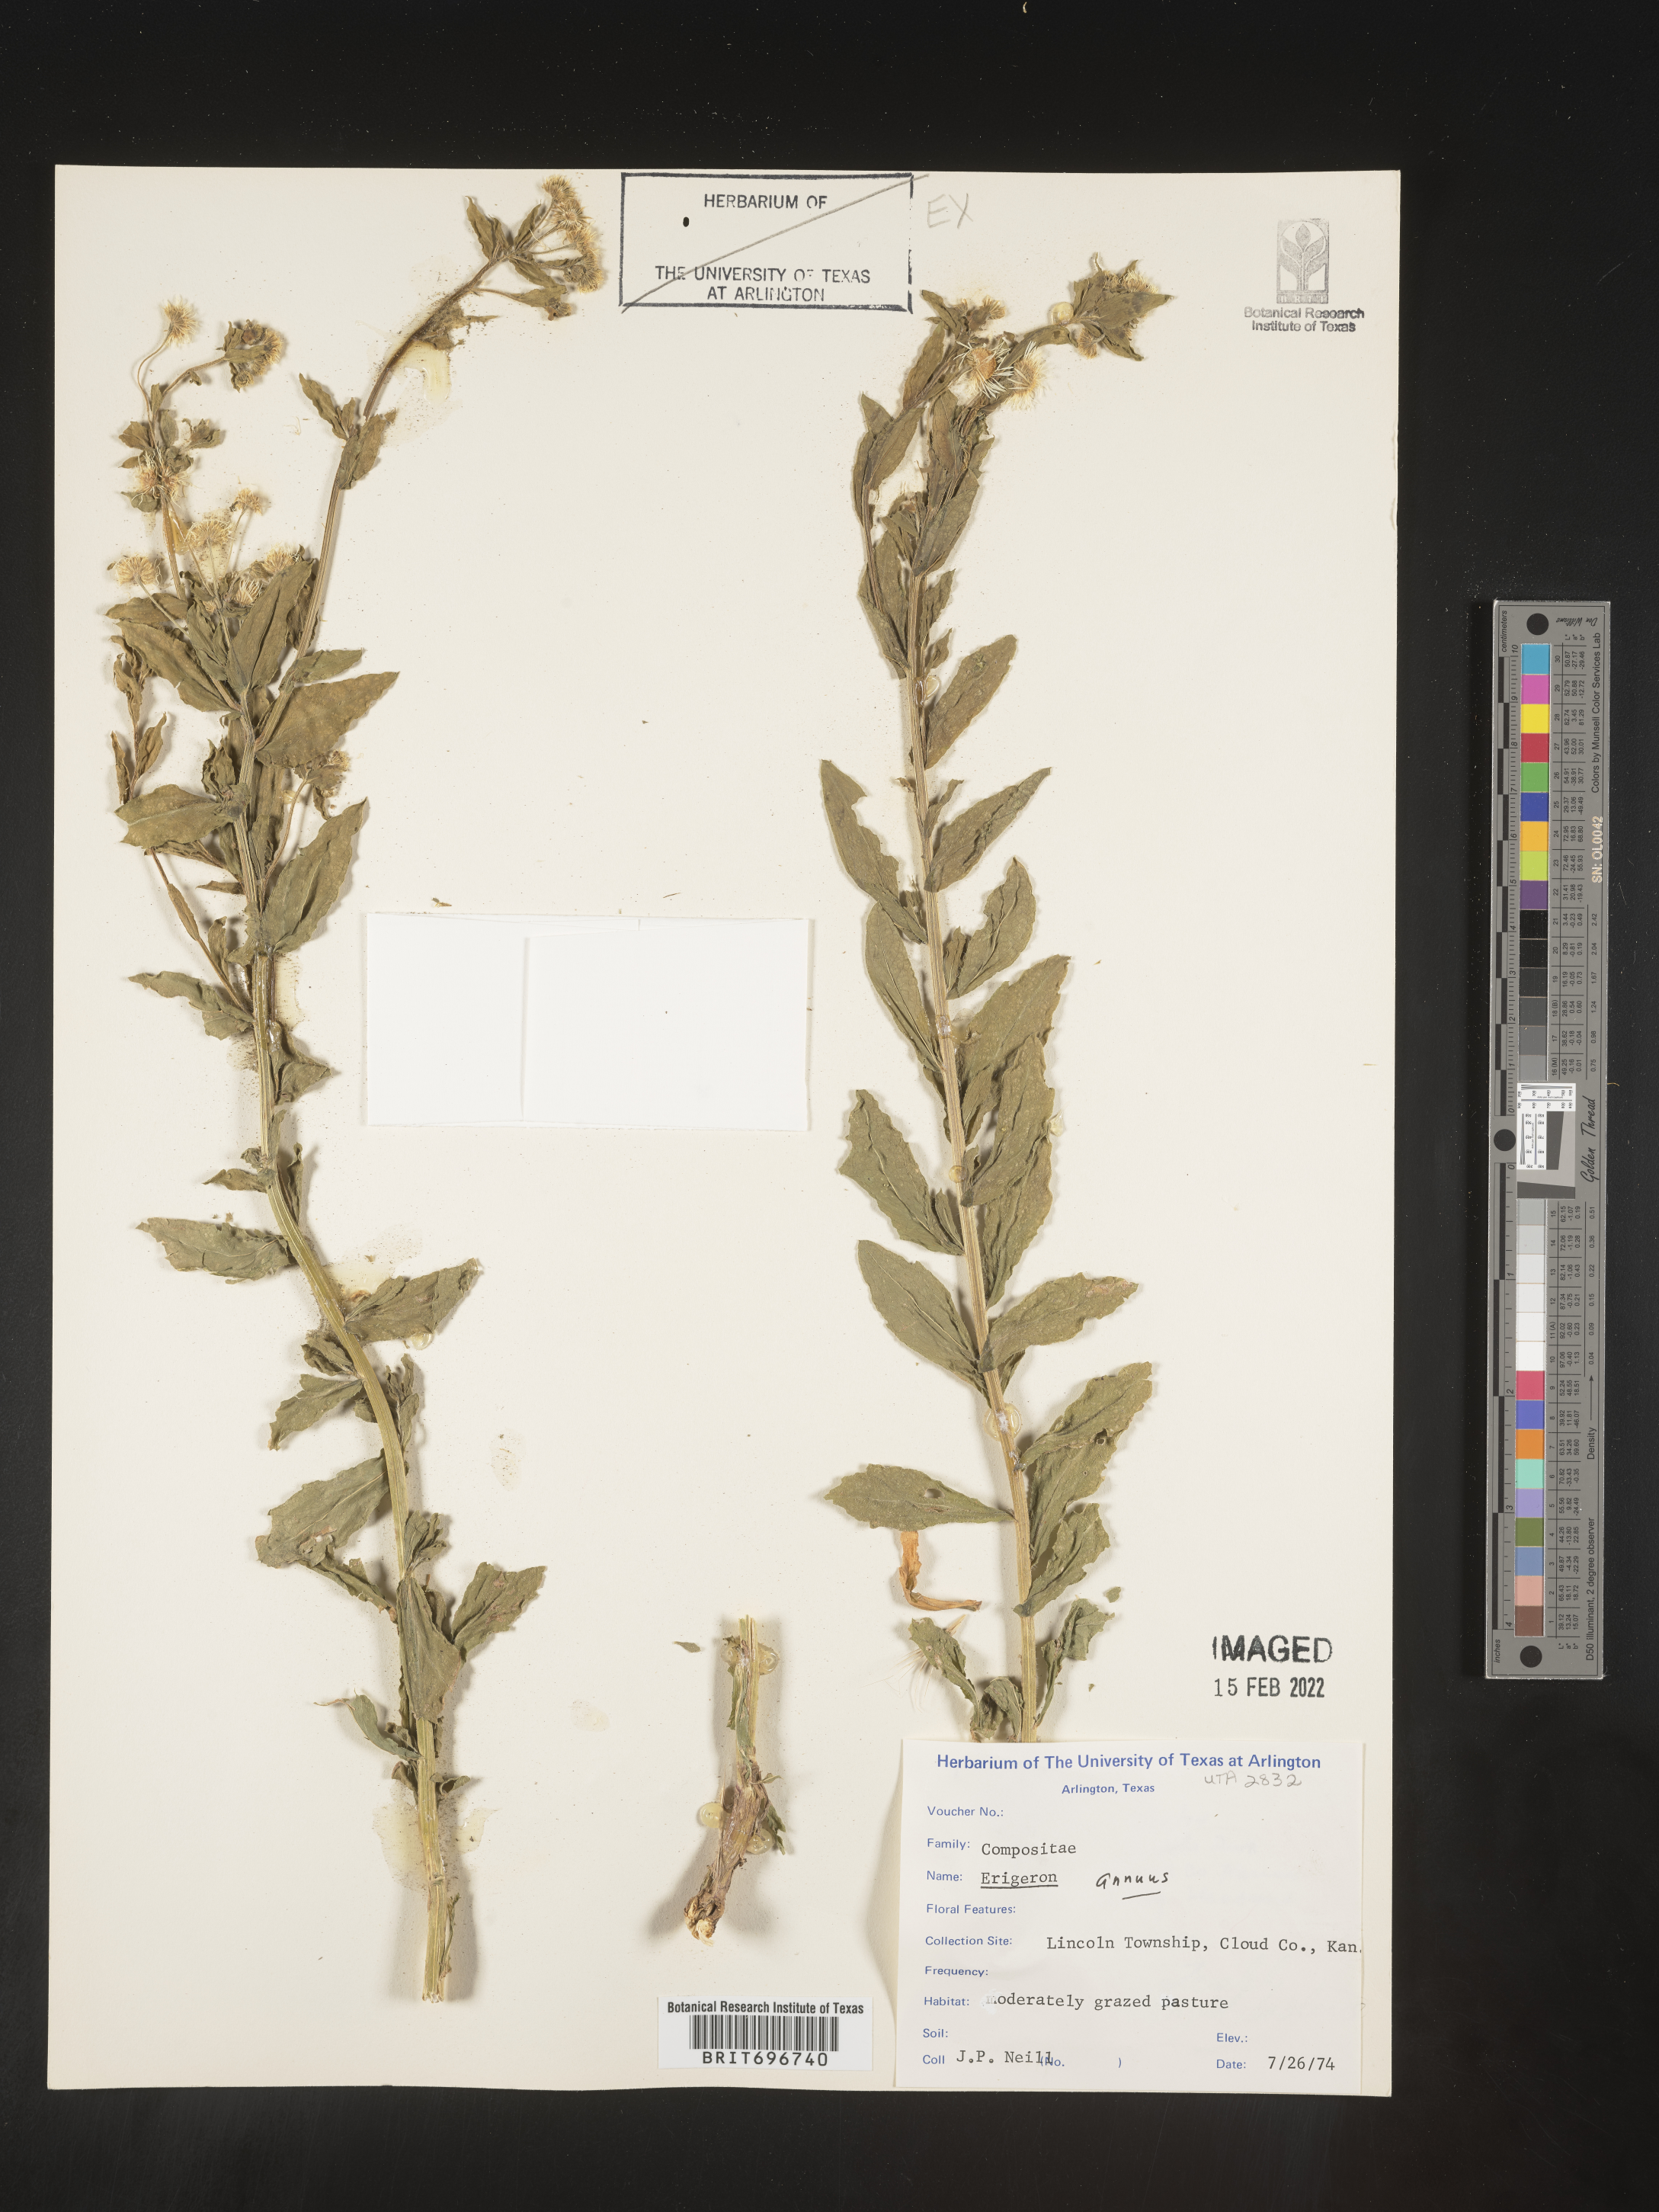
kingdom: Plantae
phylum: Tracheophyta
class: Magnoliopsida
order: Asterales
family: Asteraceae
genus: Erigeron
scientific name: Erigeron annuus
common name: Tall fleabane
